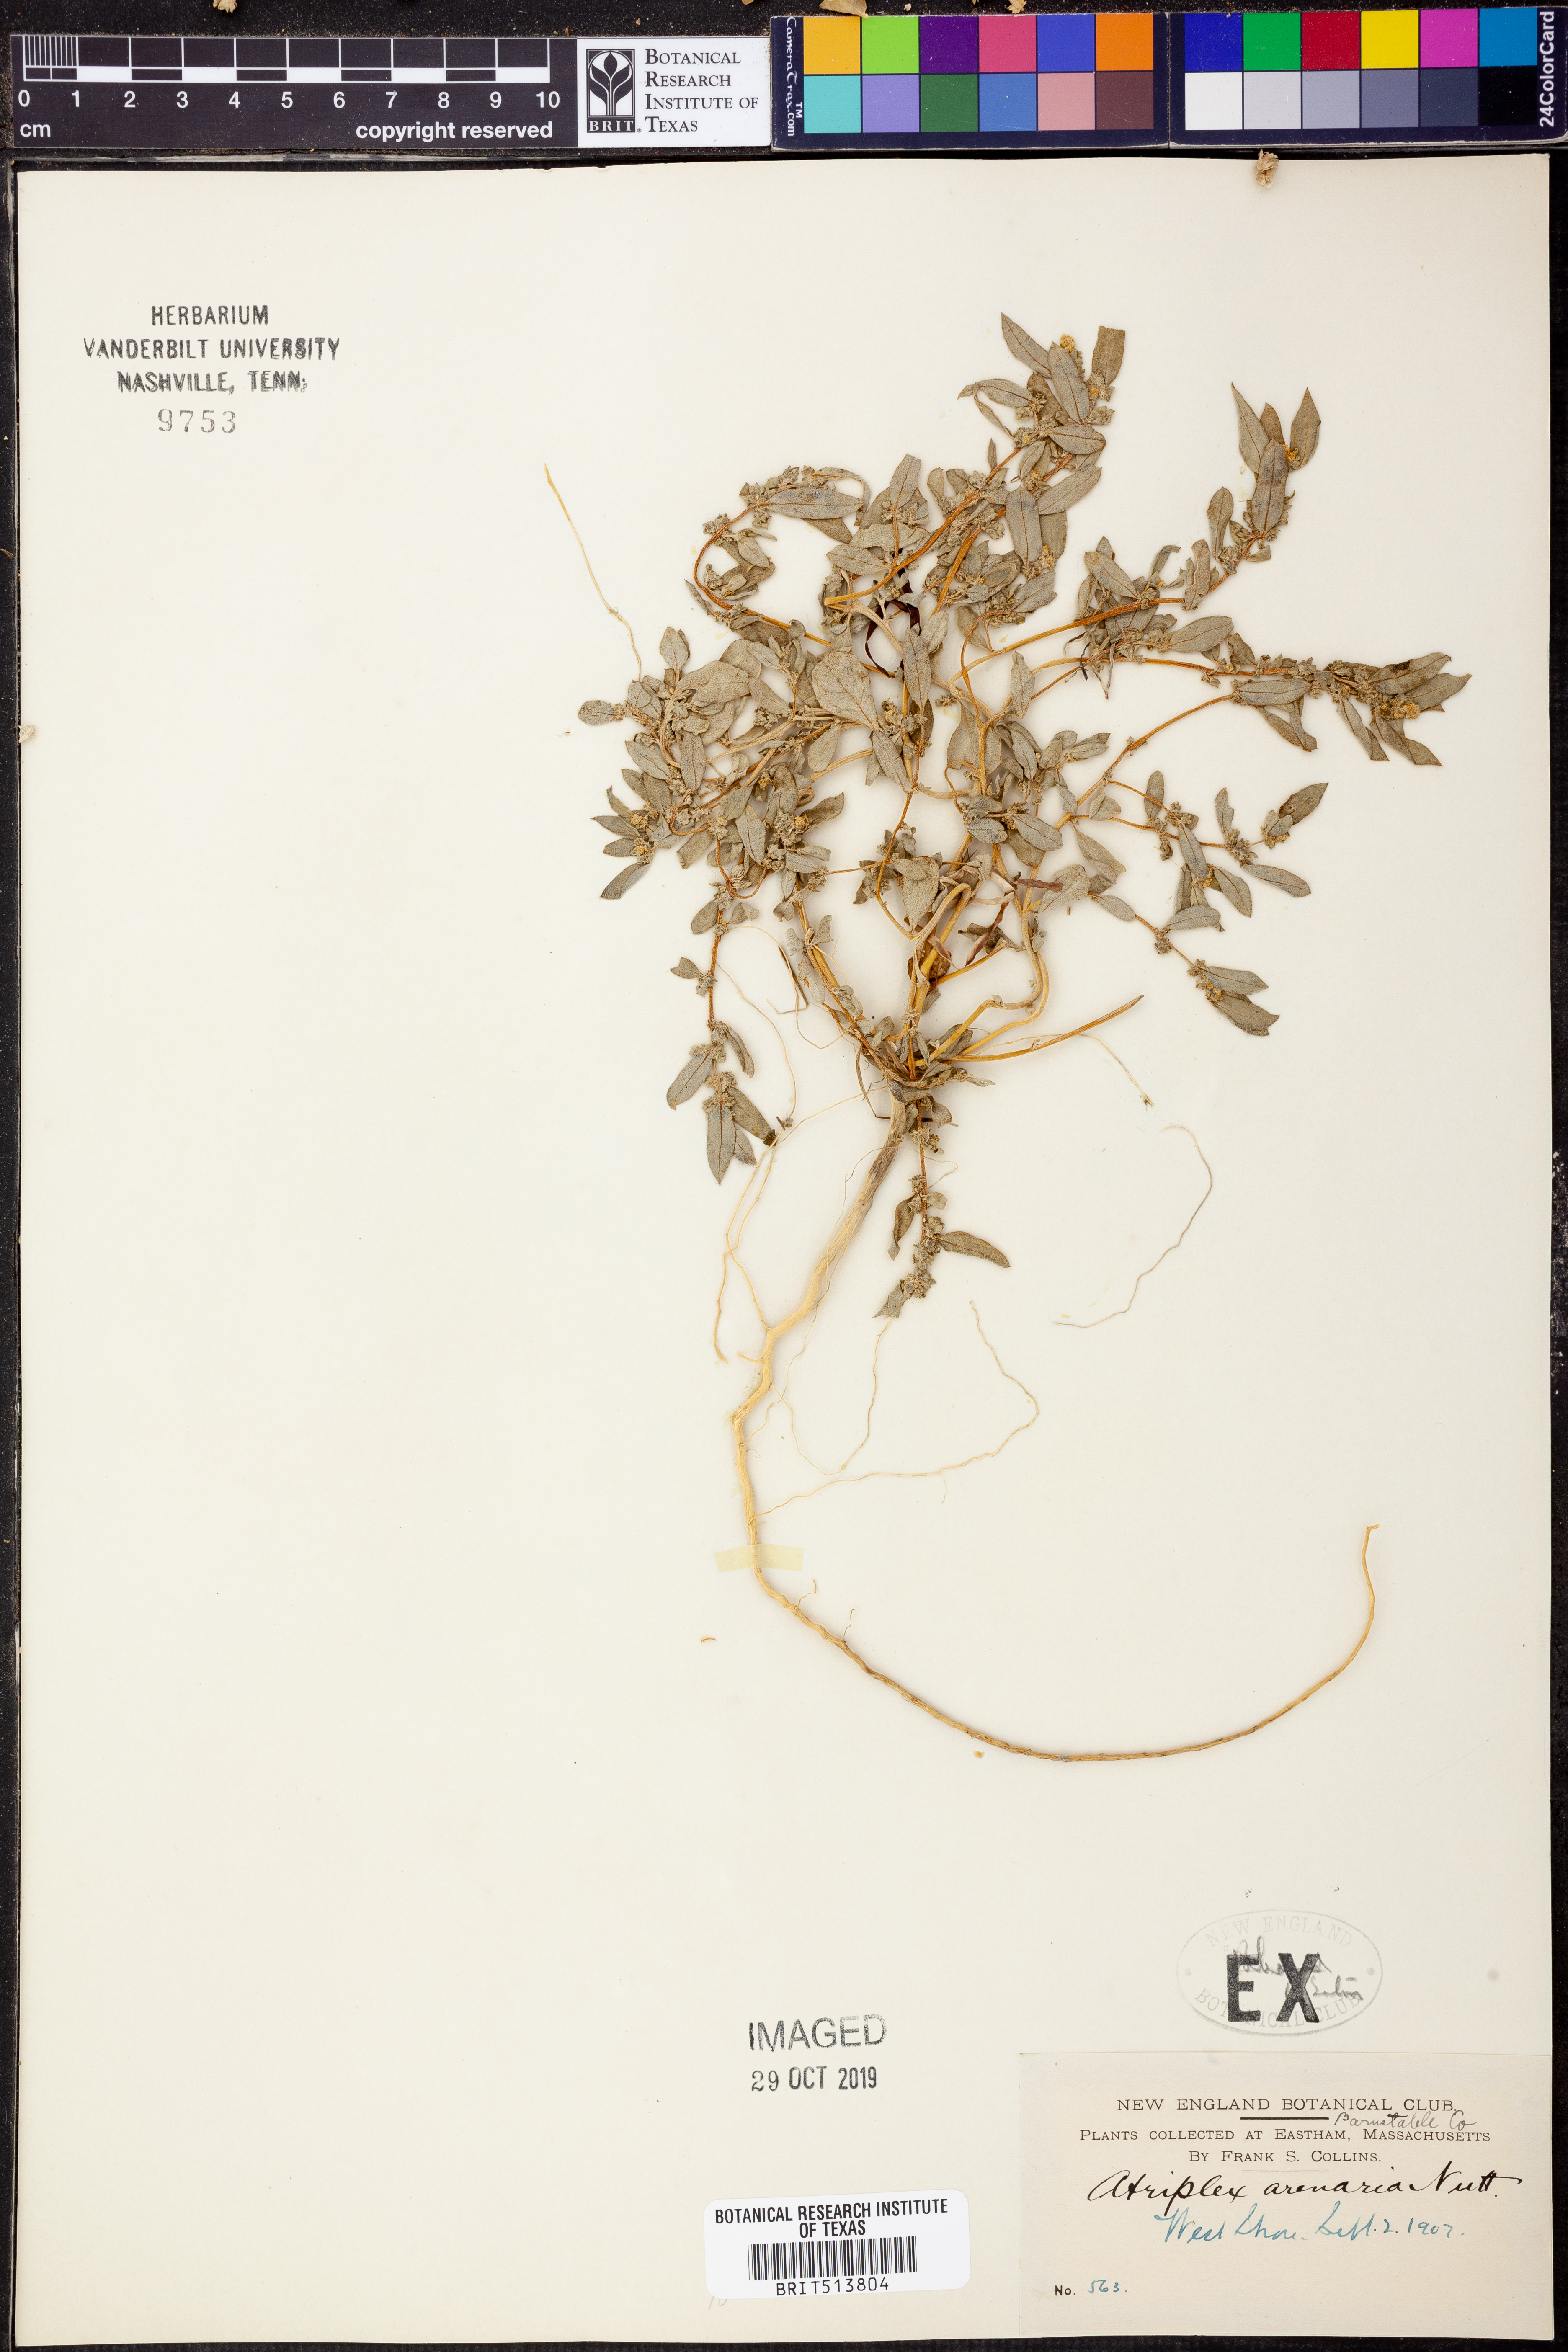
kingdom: Plantae
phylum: Tracheophyta
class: Magnoliopsida
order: Caryophyllales
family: Amaranthaceae
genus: Atriplex
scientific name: Atriplex mucronata
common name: Quelite
